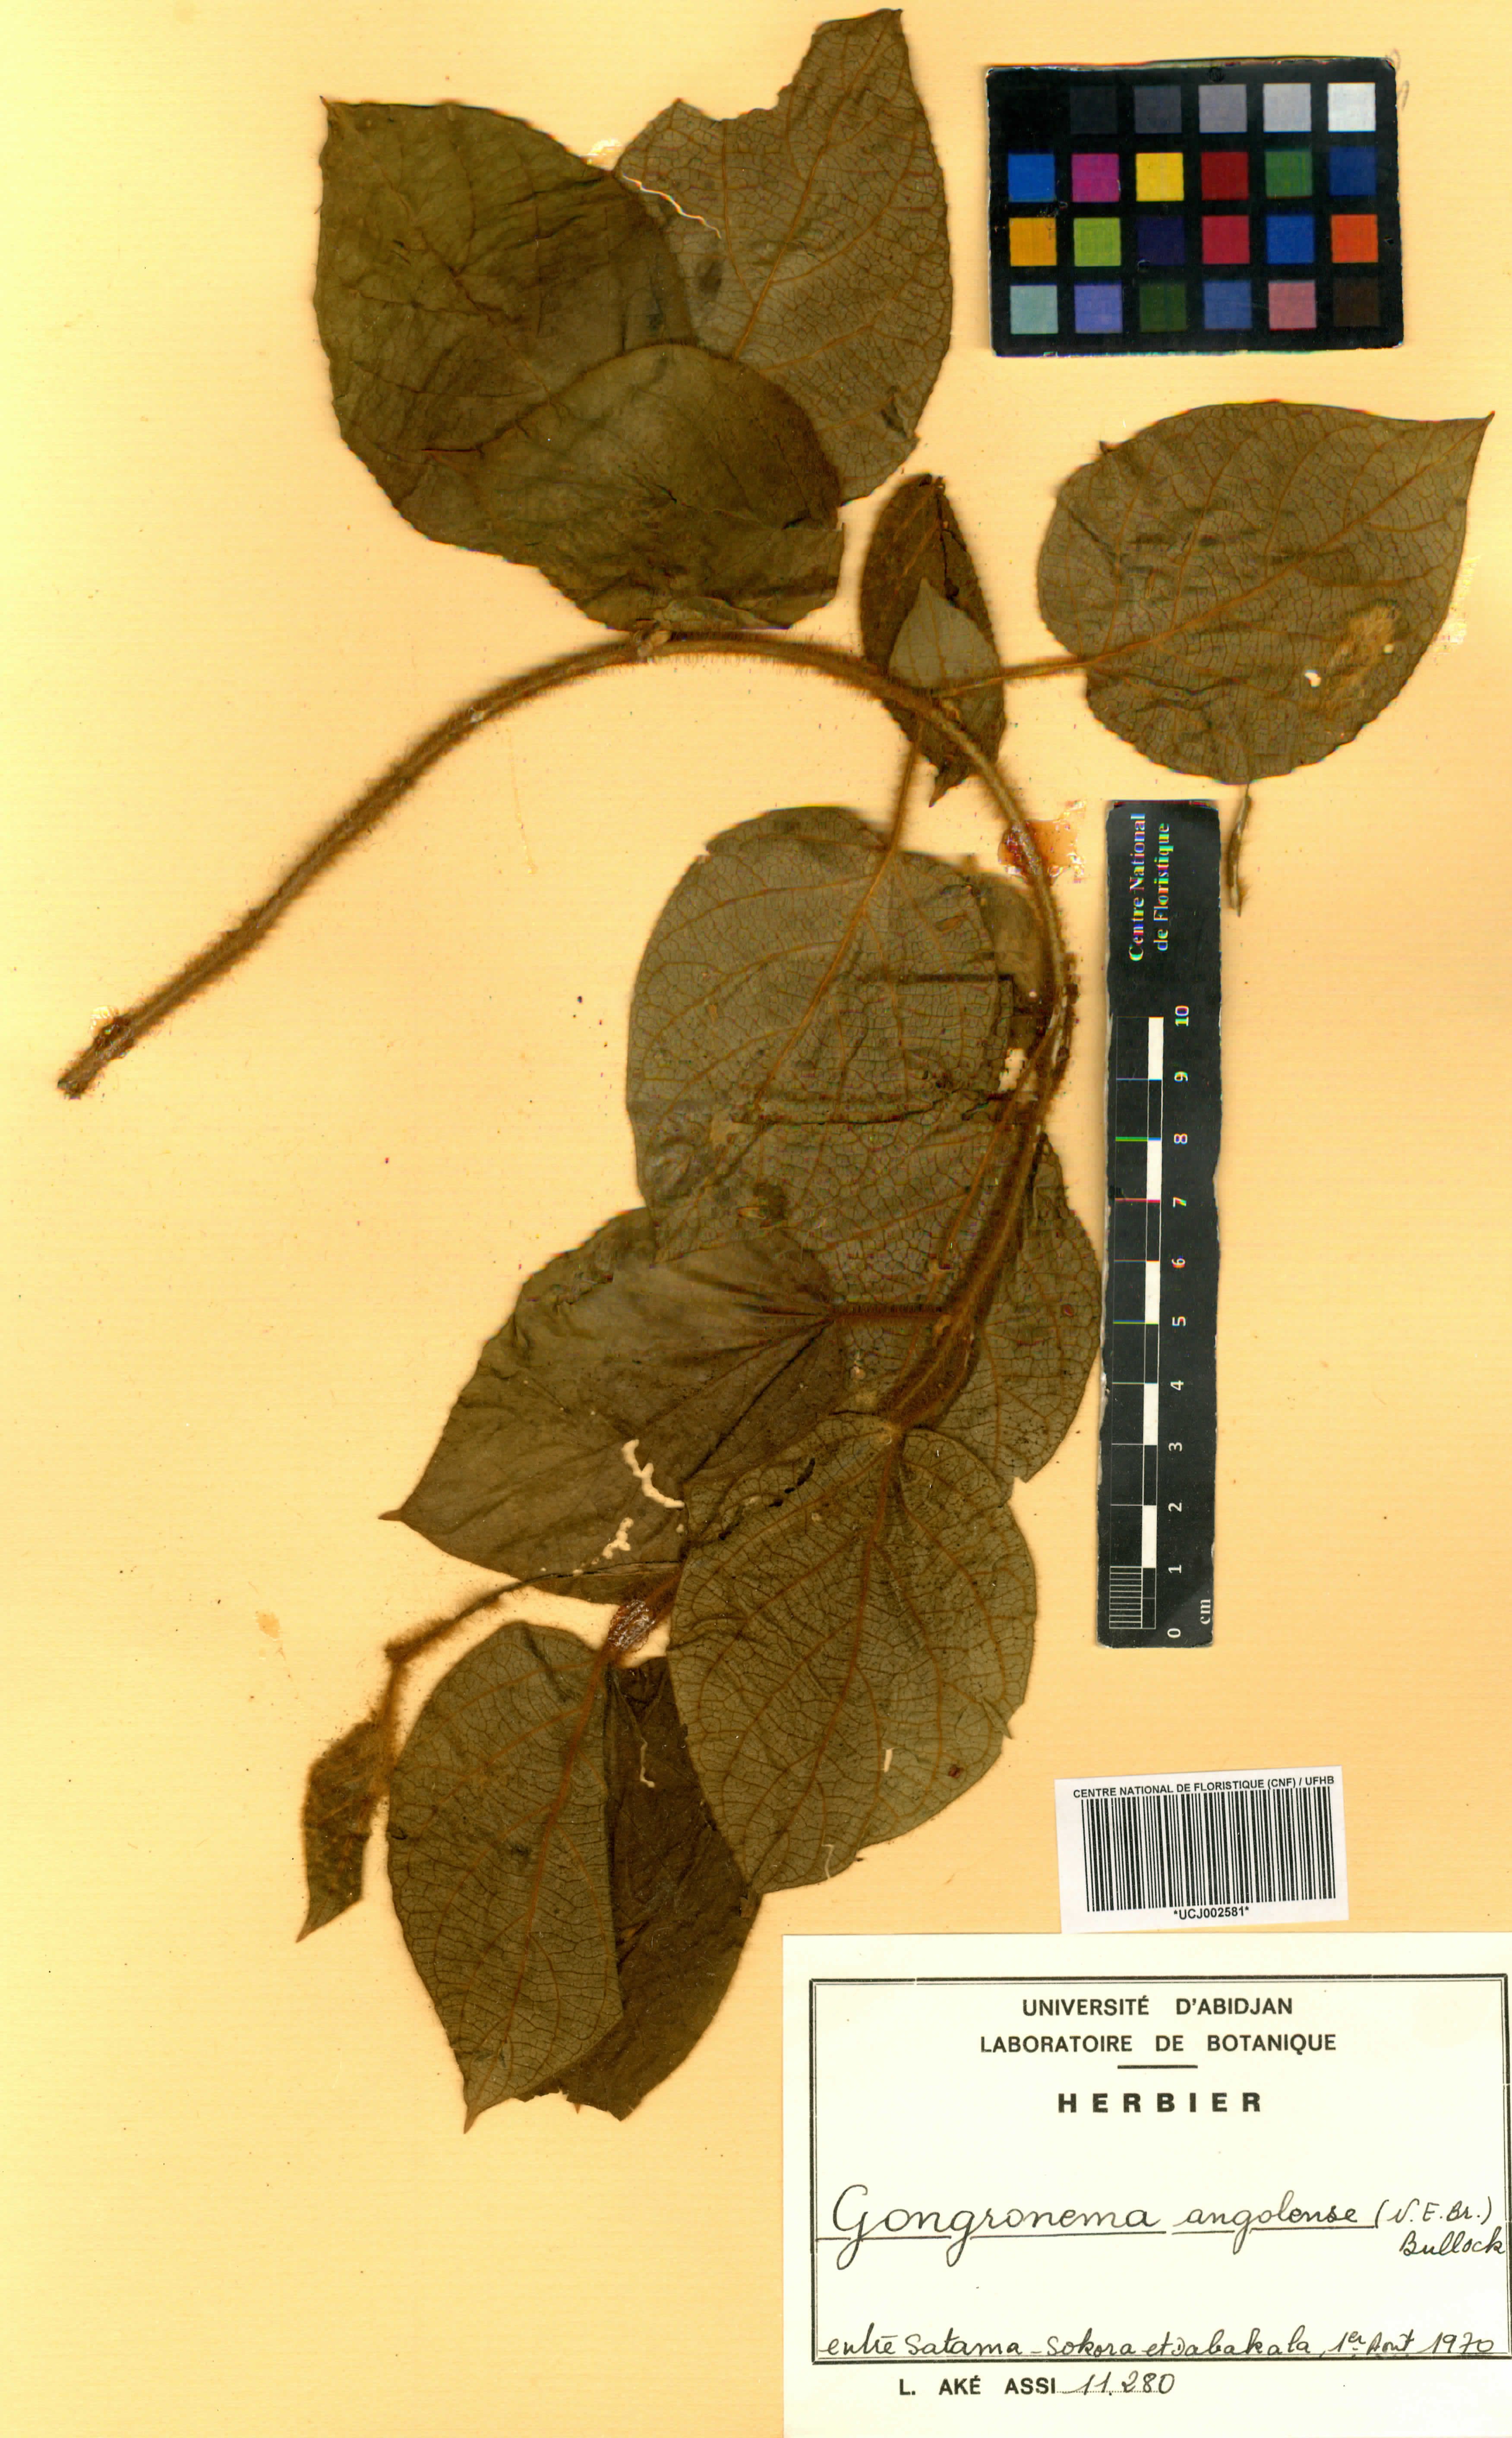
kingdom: Plantae
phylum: Tracheophyta
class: Magnoliopsida
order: Gentianales
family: Apocynaceae
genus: Gongronemopsis
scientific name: Gongronemopsis angolensis
